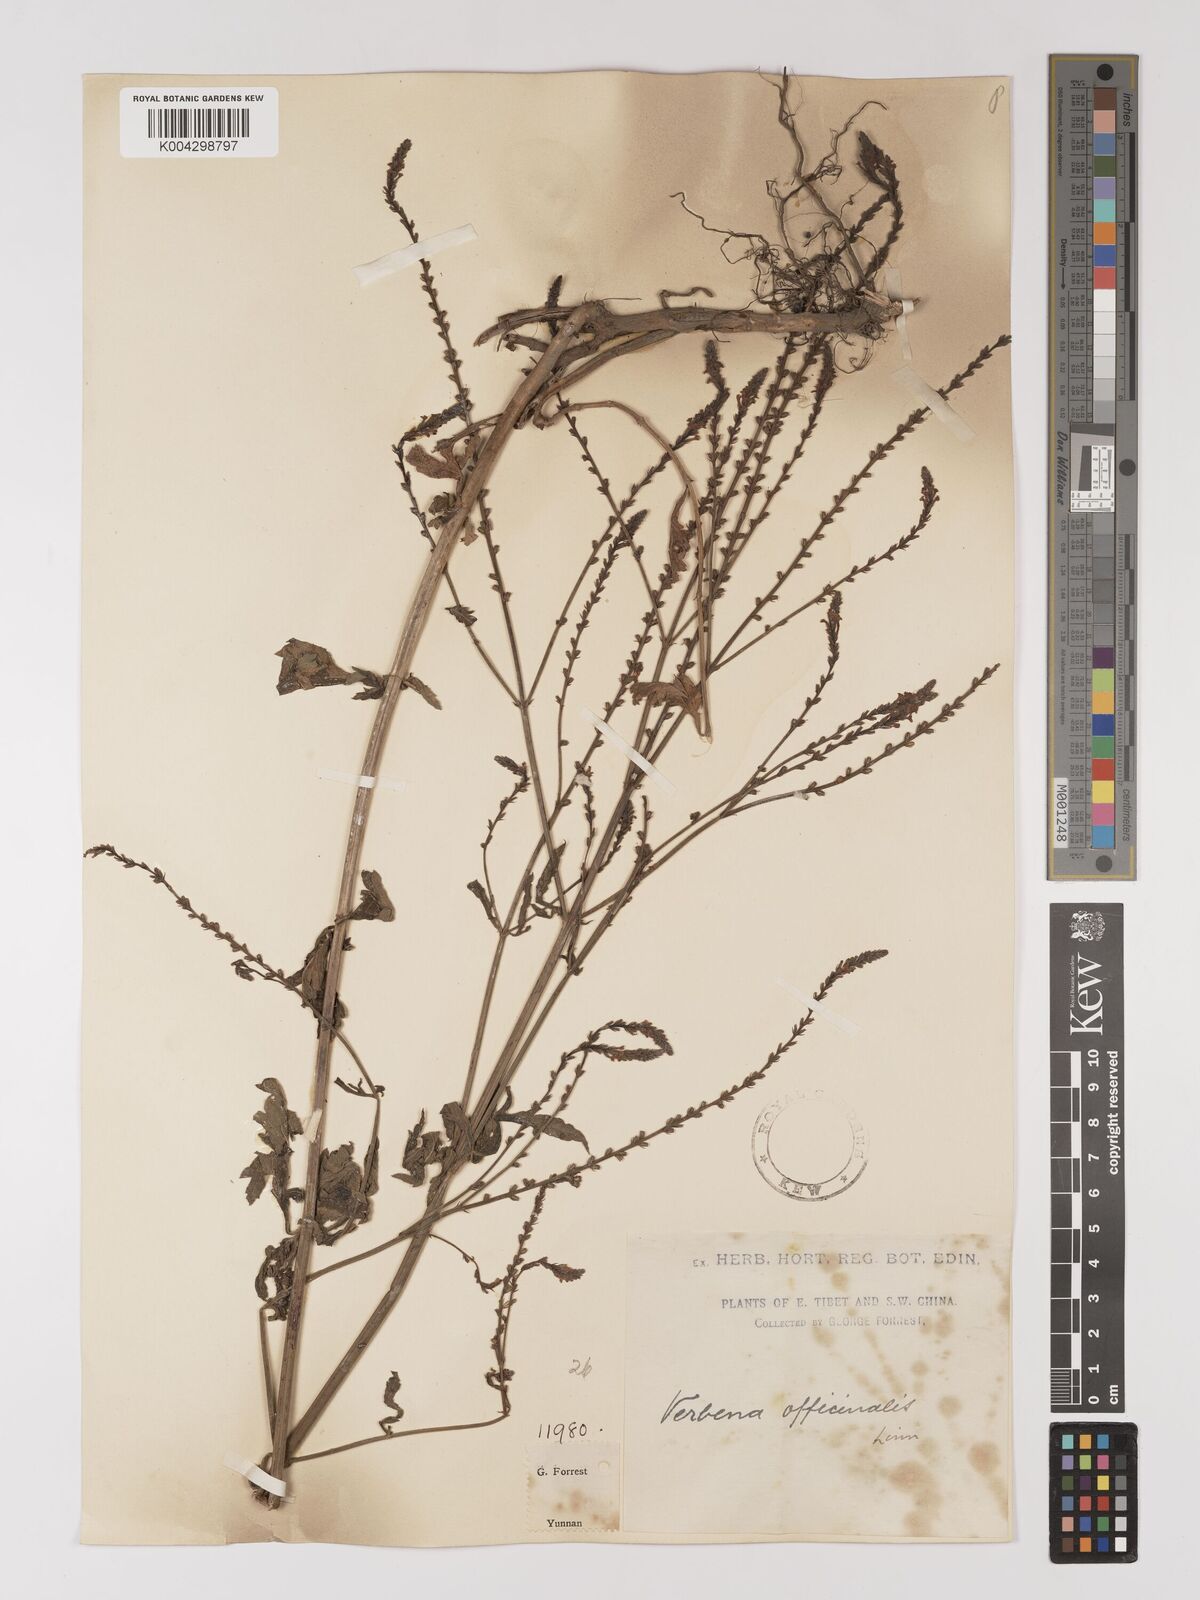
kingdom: Plantae
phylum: Tracheophyta
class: Magnoliopsida
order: Lamiales
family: Verbenaceae
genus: Verbena
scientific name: Verbena officinalis
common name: Vervain
